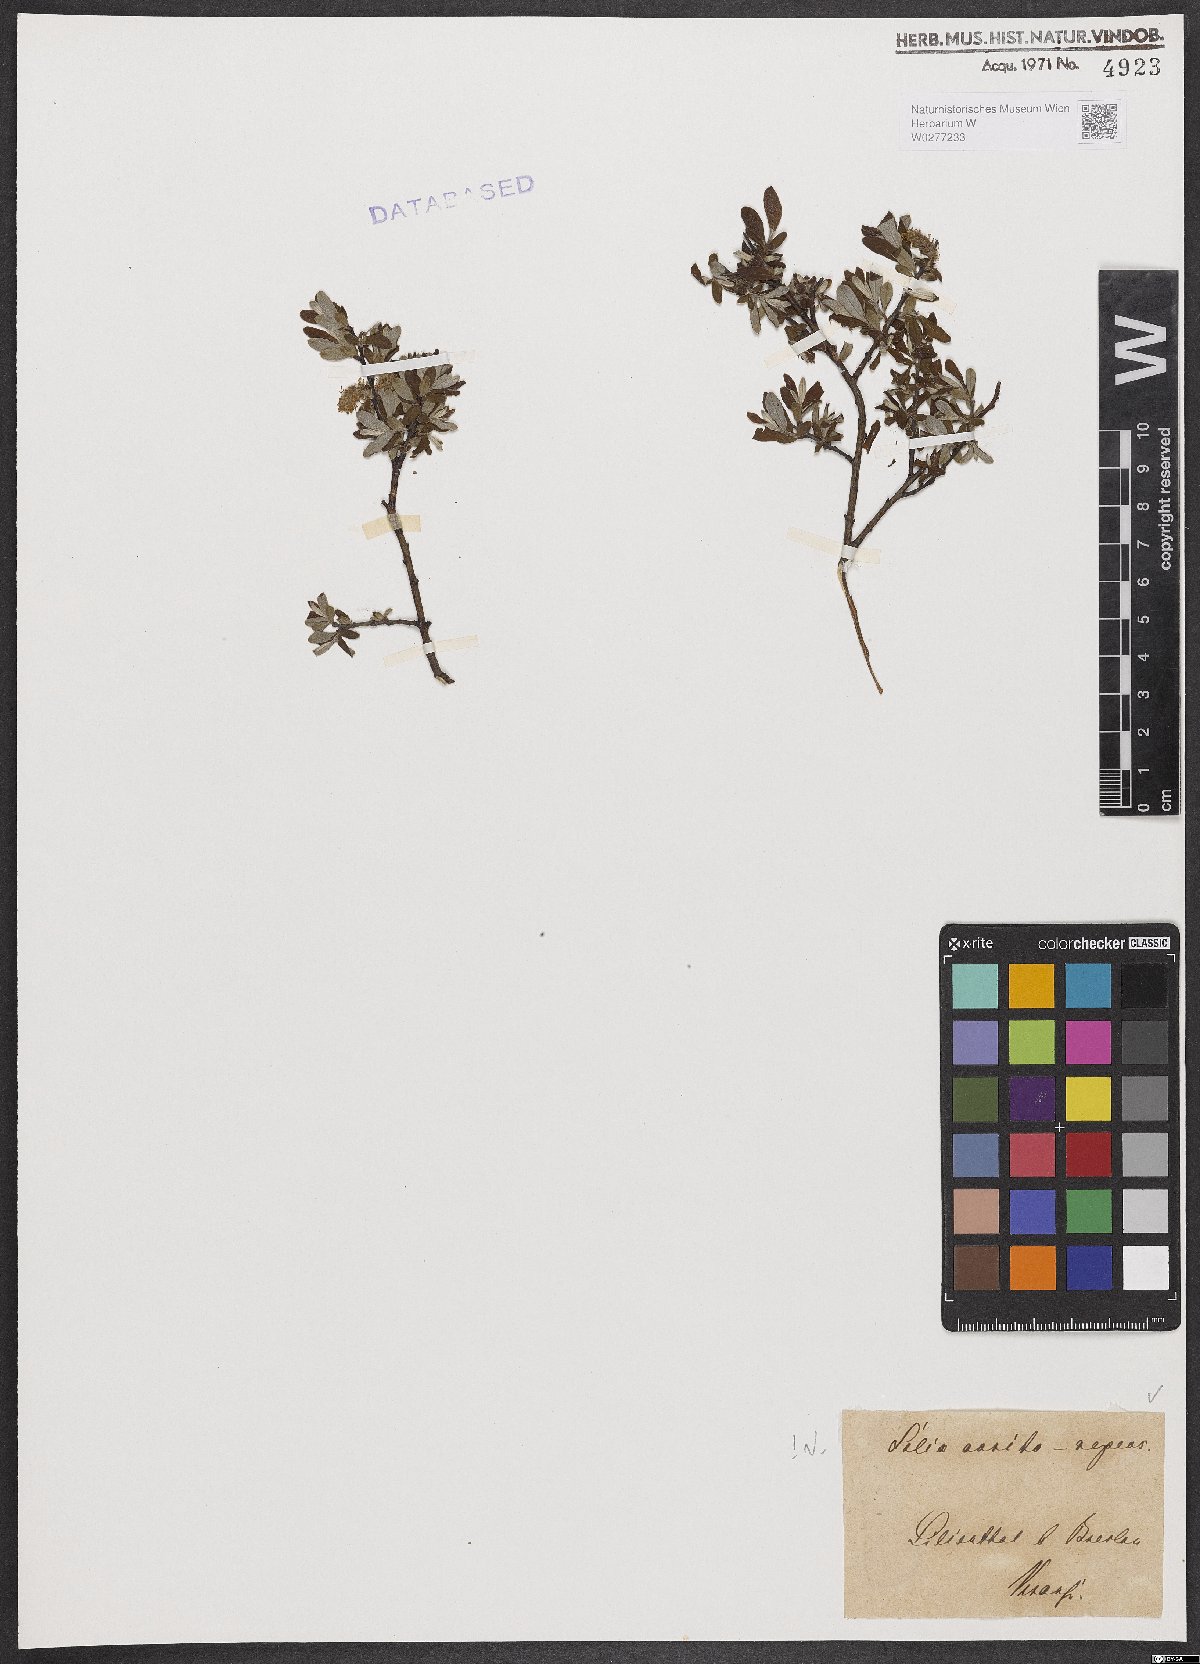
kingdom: Plantae
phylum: Tracheophyta
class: Magnoliopsida
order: Malpighiales
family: Salicaceae
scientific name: Salicaceae
